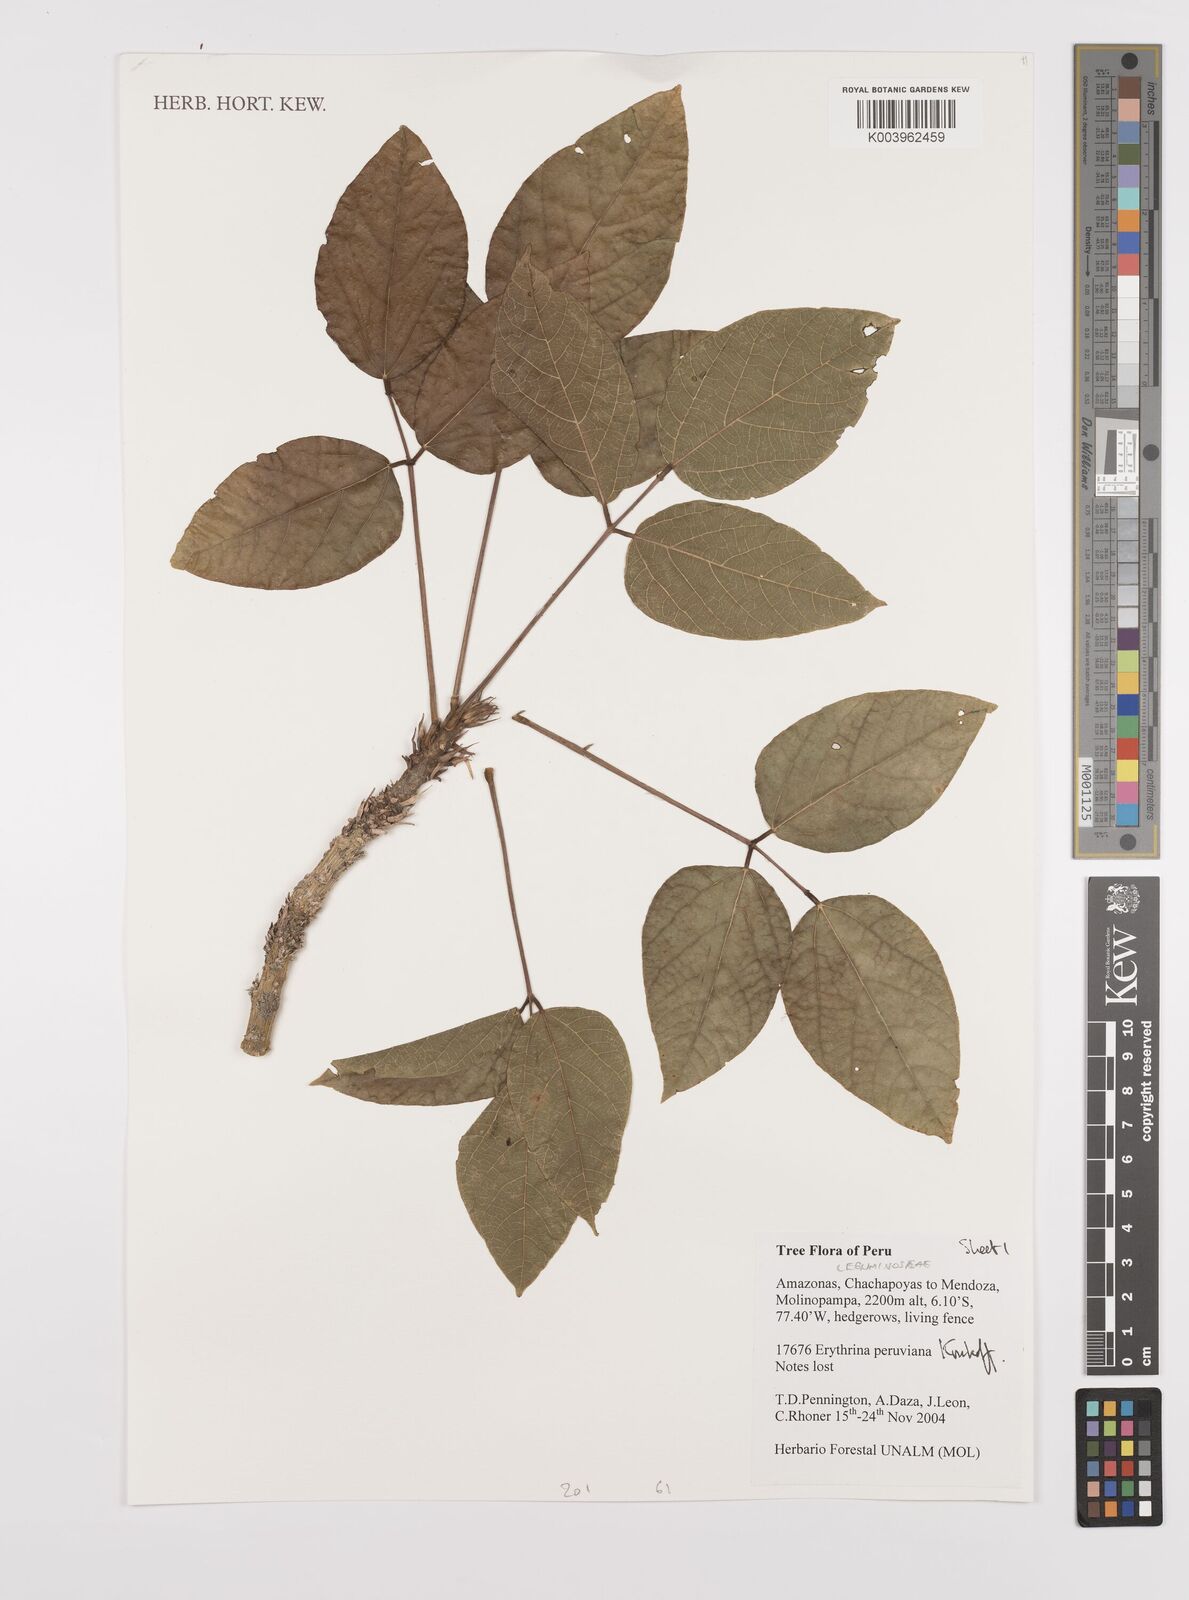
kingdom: Plantae
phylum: Tracheophyta
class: Magnoliopsida
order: Fabales
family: Fabaceae
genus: Erythrina
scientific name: Erythrina peruviana
